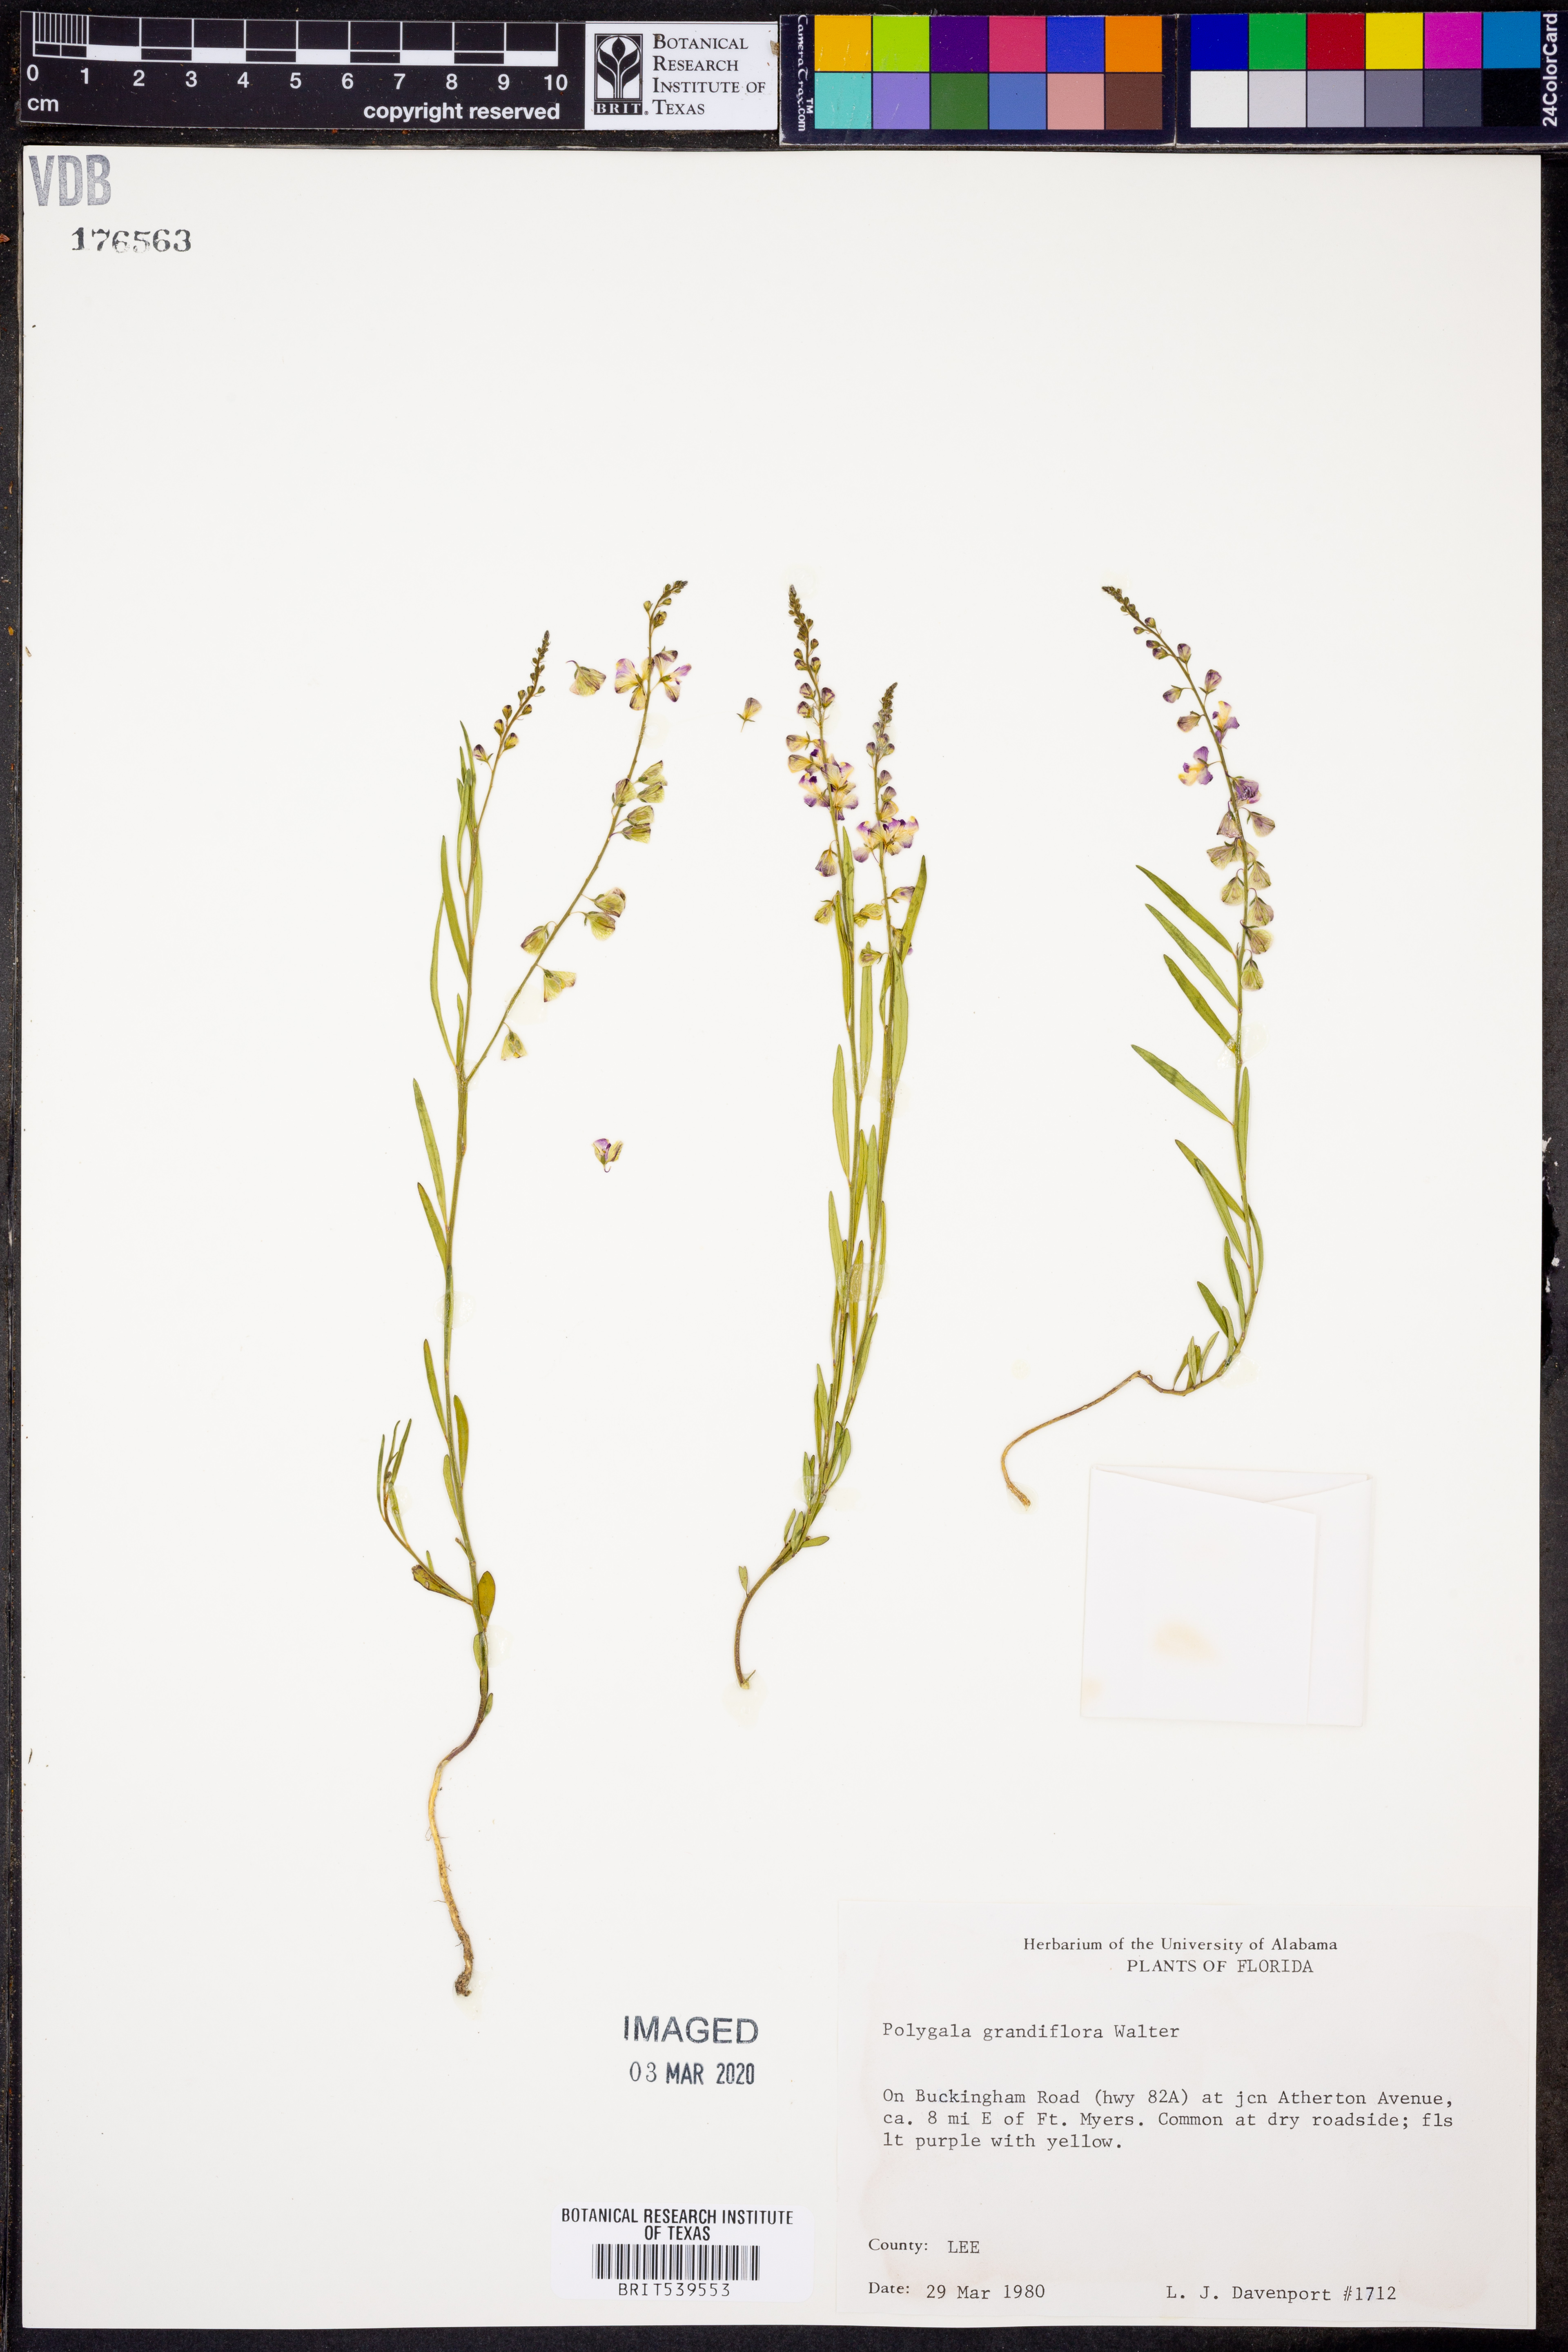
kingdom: Plantae
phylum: Tracheophyta
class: Magnoliopsida
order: Fabales
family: Polygalaceae
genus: Asemeia
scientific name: Asemeia grandiflora
